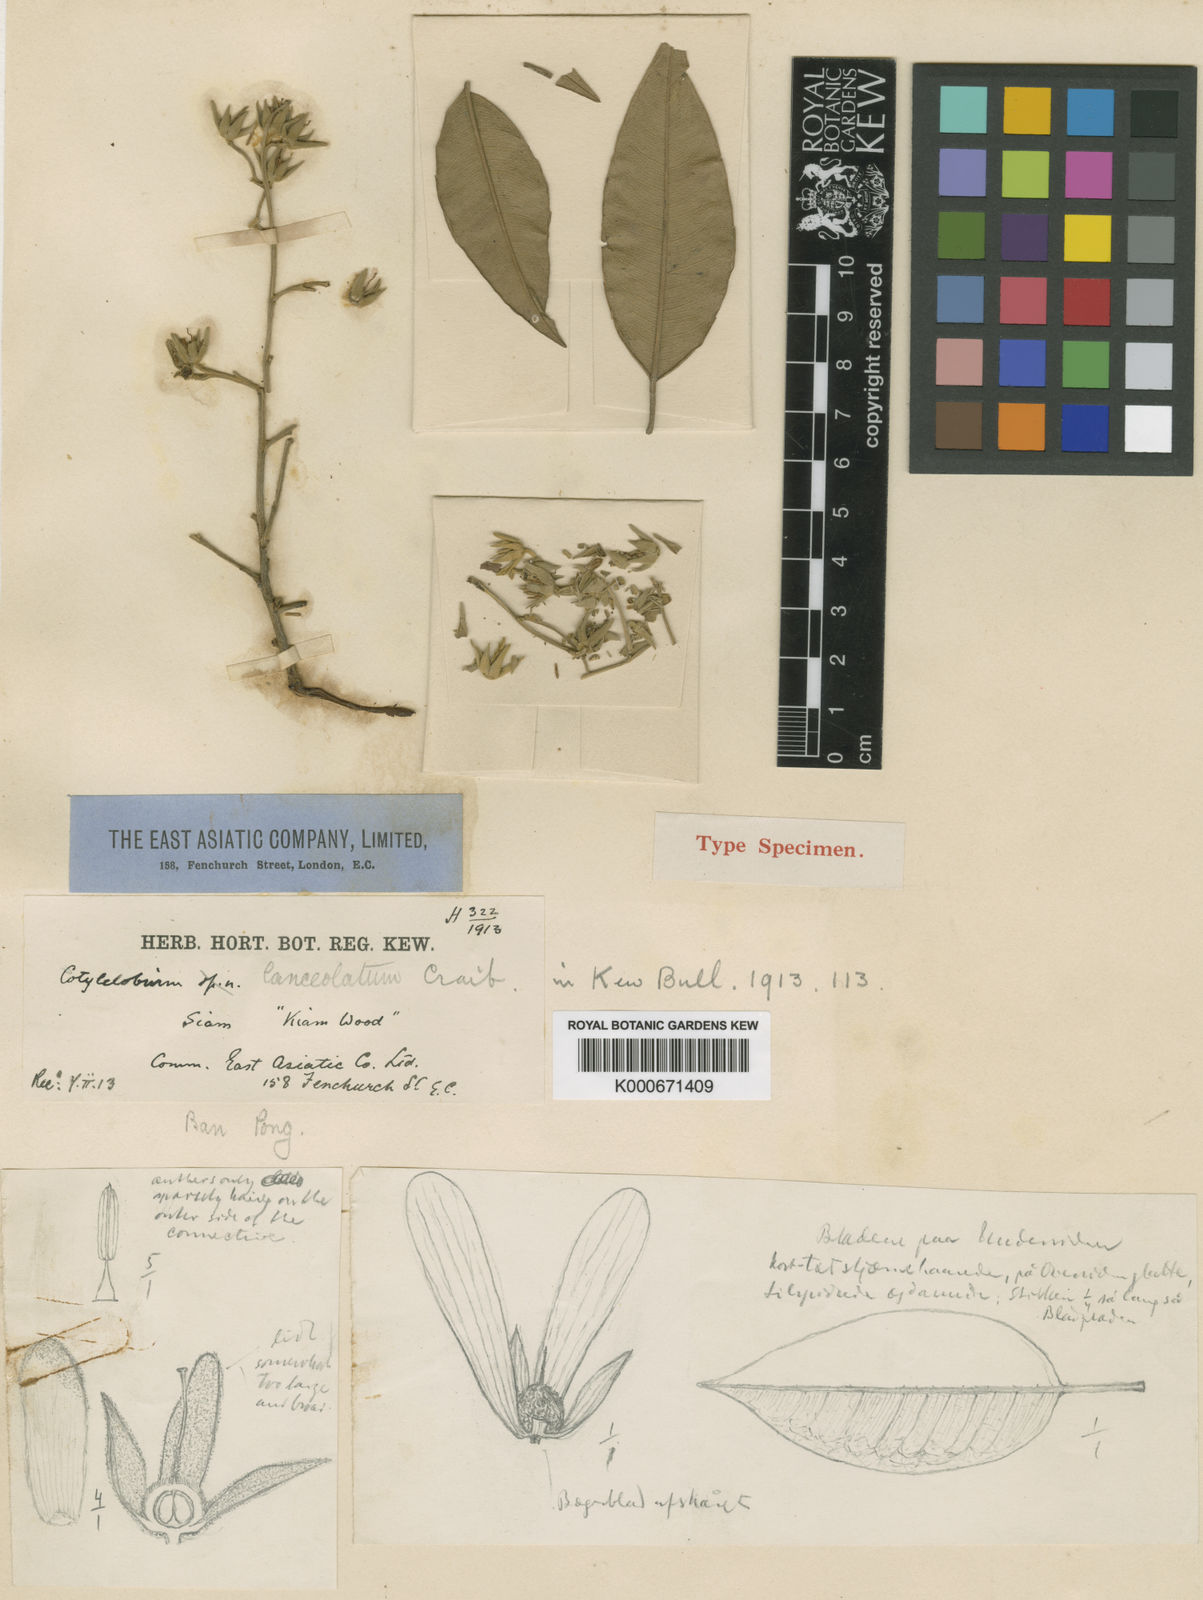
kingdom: Plantae
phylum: Tracheophyta
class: Magnoliopsida
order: Malvales
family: Dipterocarpaceae
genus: Cotylelobium
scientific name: Cotylelobium lanceolatum
